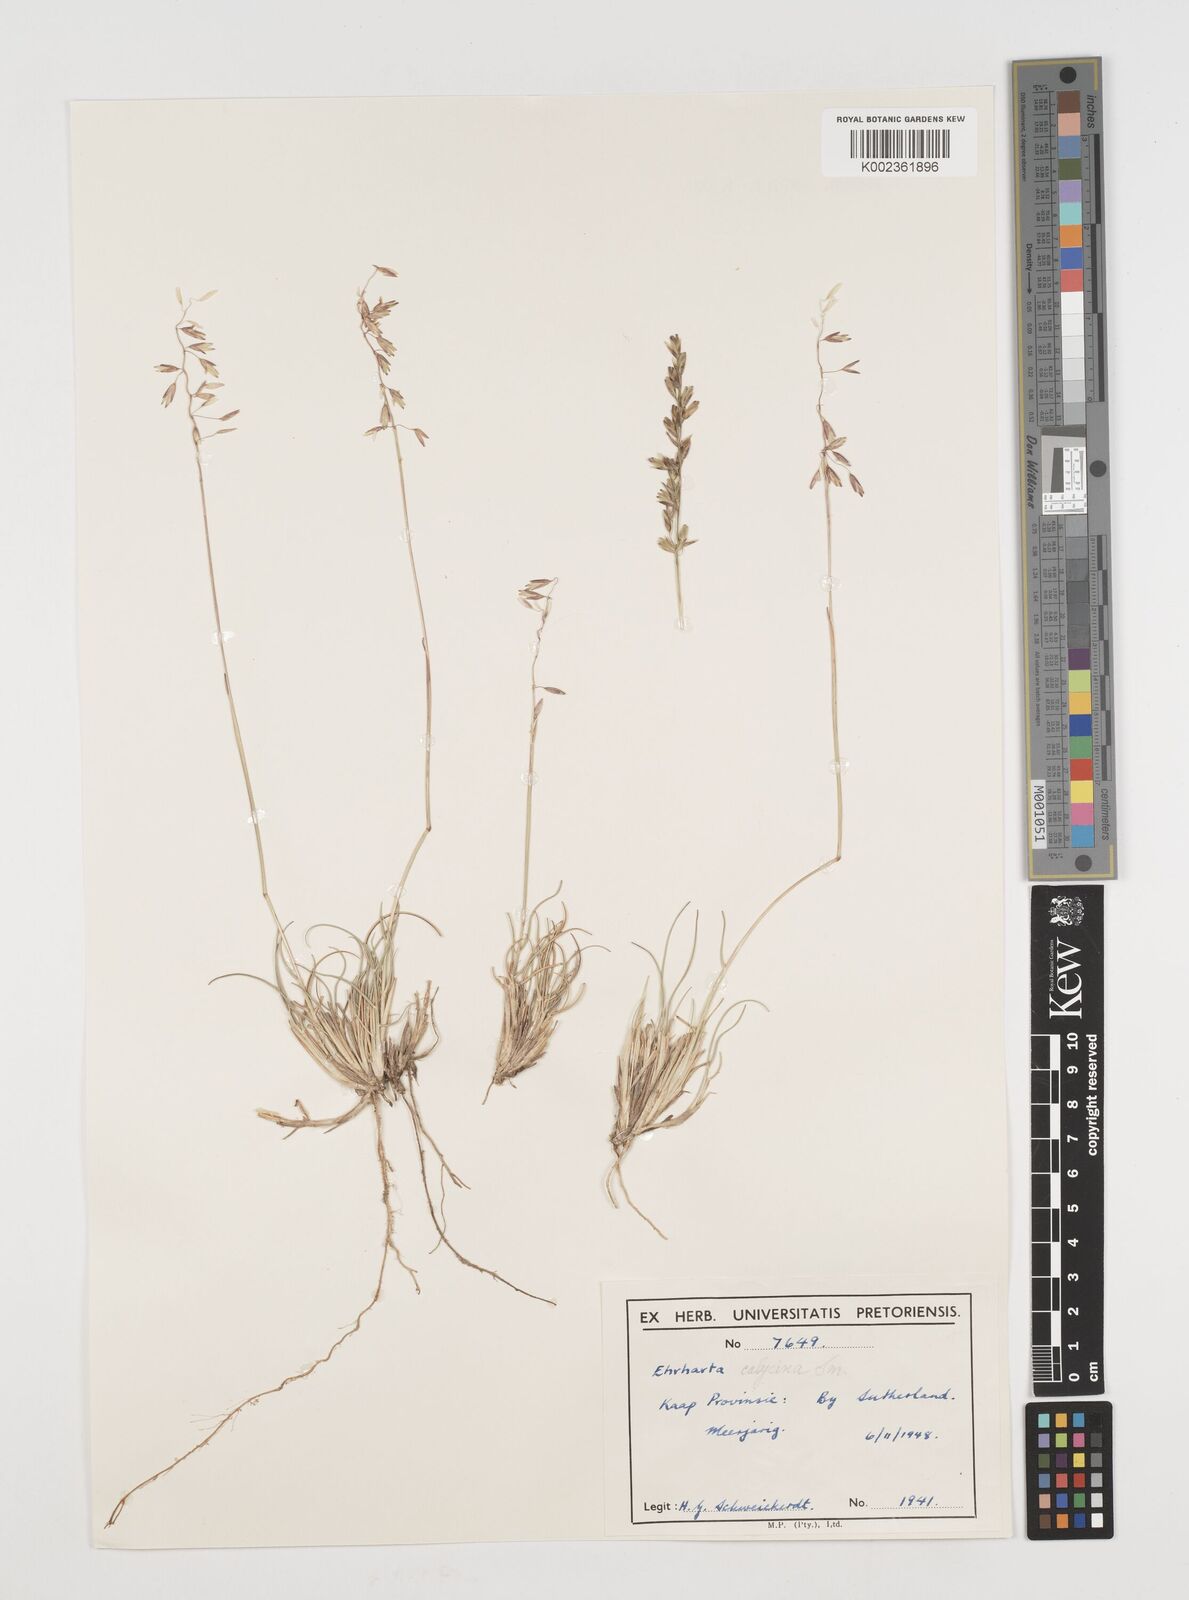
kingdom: Plantae
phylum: Tracheophyta
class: Liliopsida
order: Poales
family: Poaceae
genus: Ehrharta
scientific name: Ehrharta calycina
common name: Perennial veldtgrass
